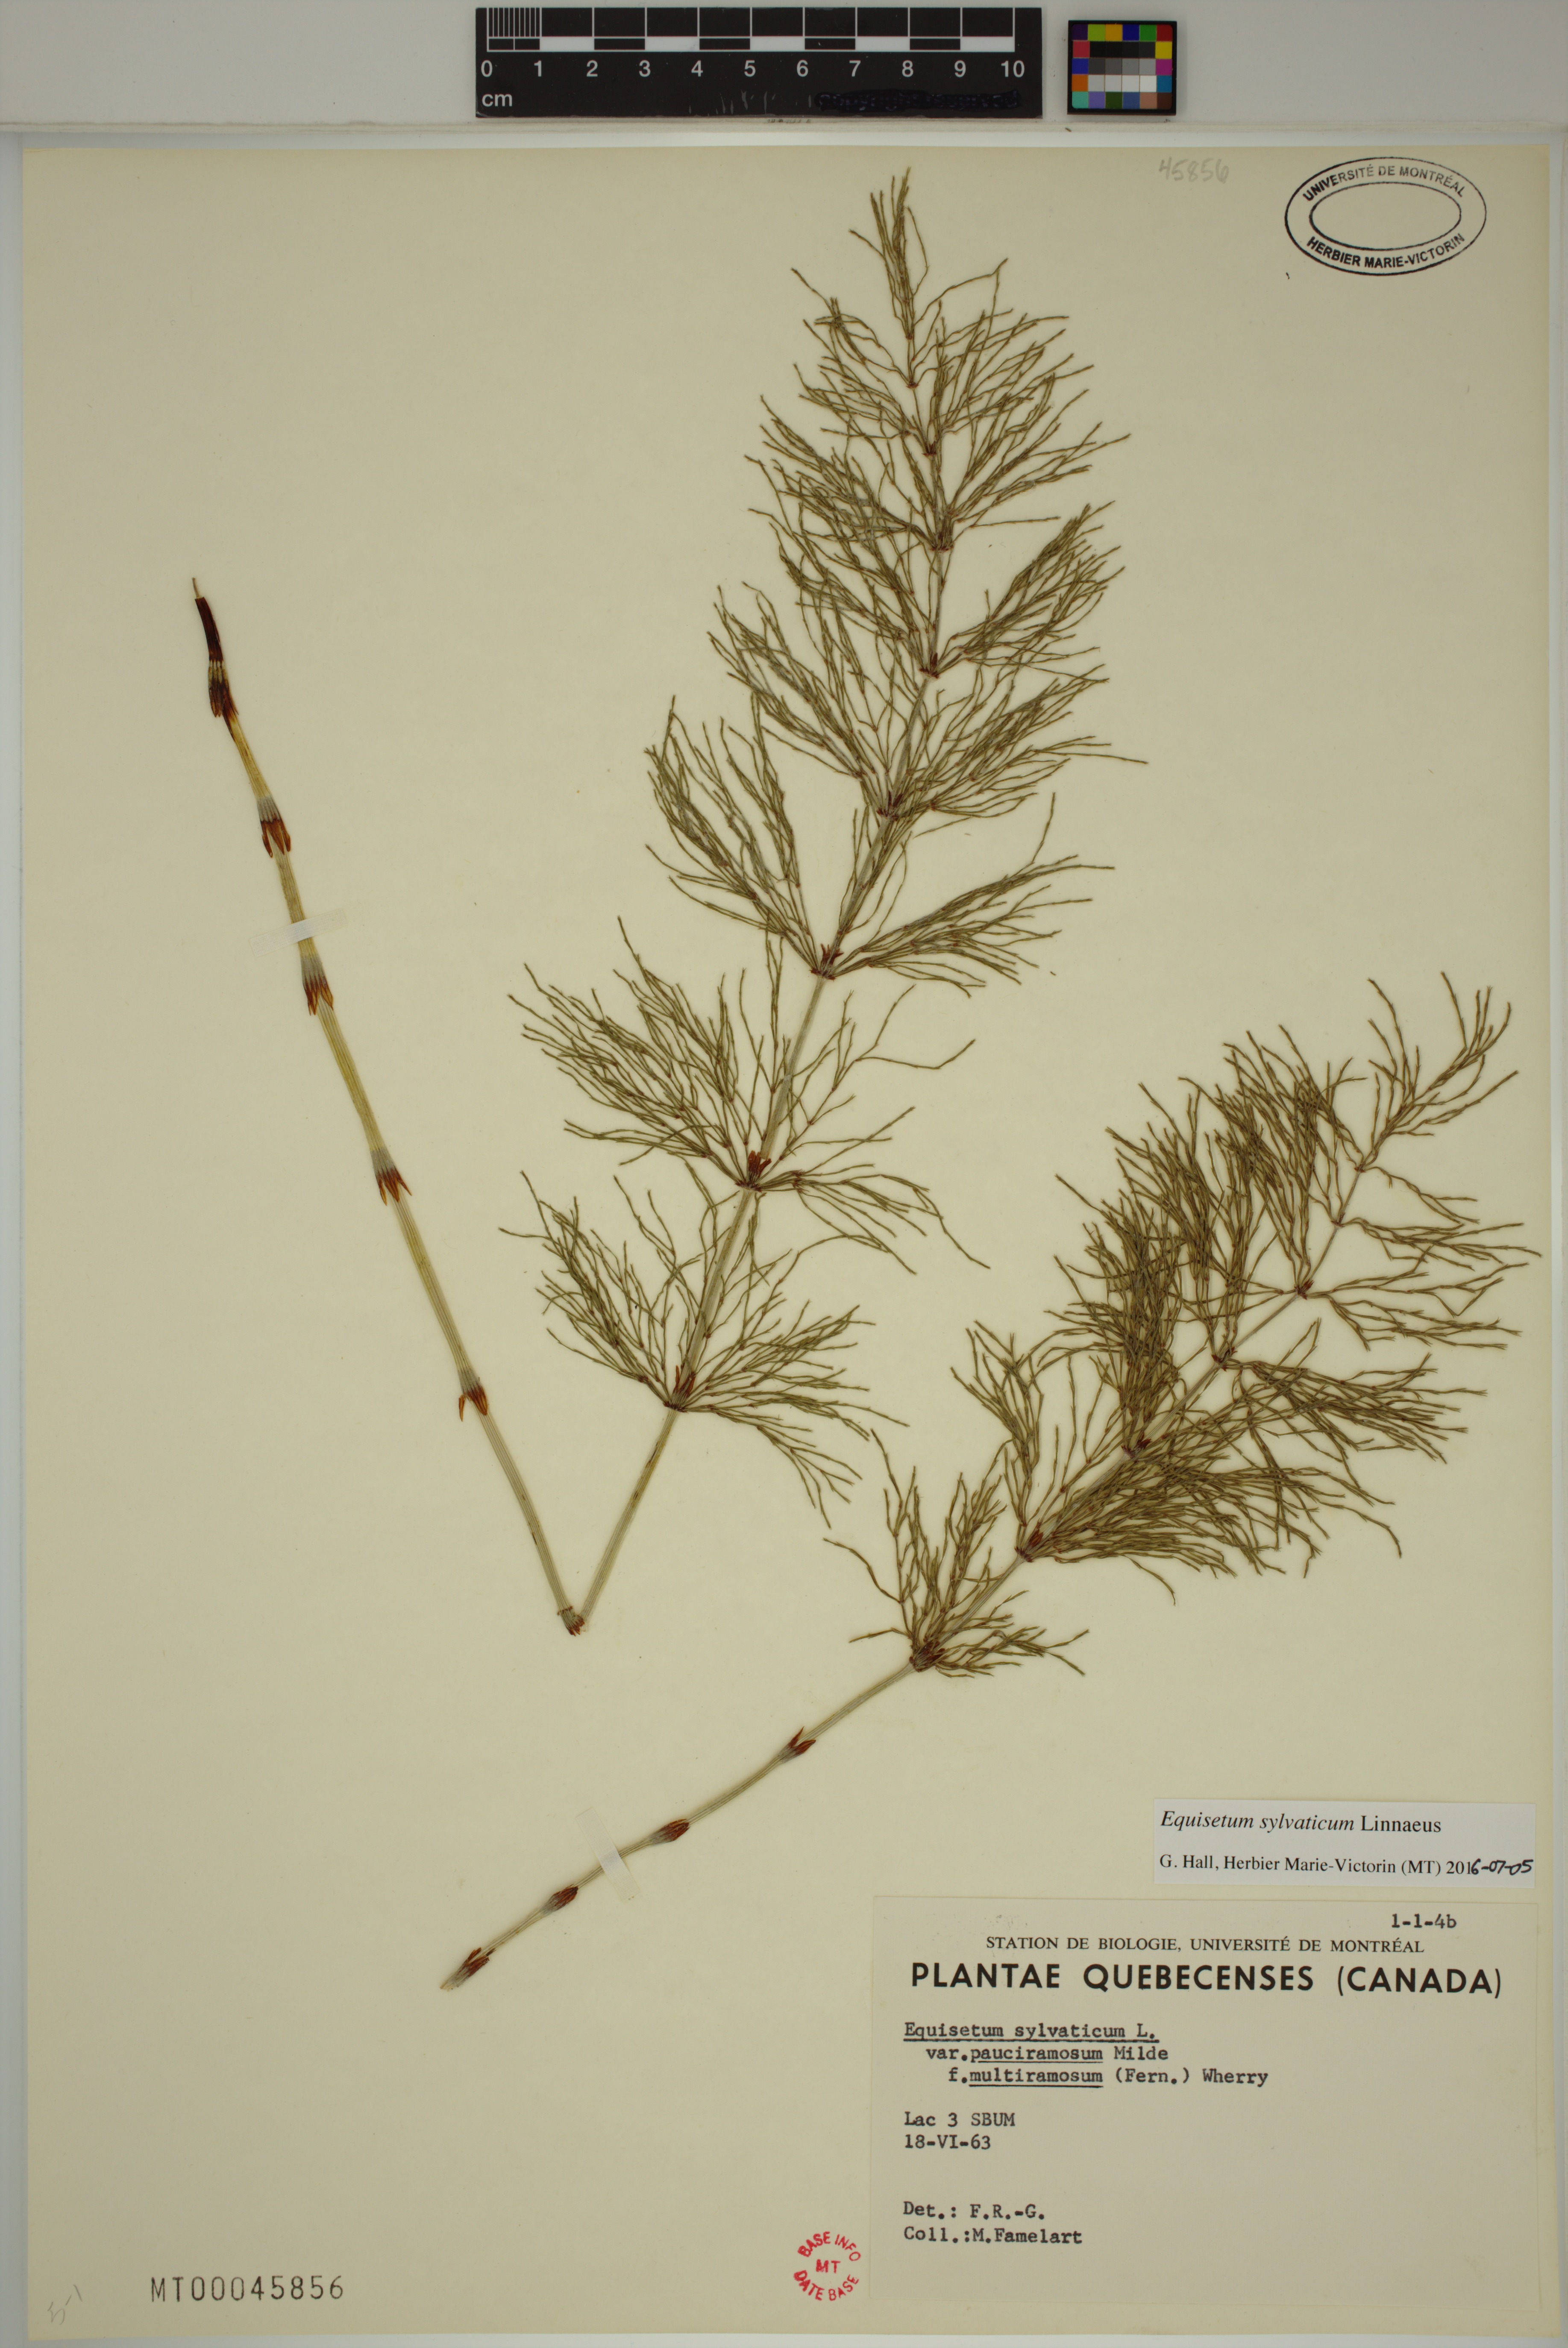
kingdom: Plantae
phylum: Tracheophyta
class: Polypodiopsida
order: Equisetales
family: Equisetaceae
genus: Equisetum
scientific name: Equisetum sylvaticum
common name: Wood horsetail
